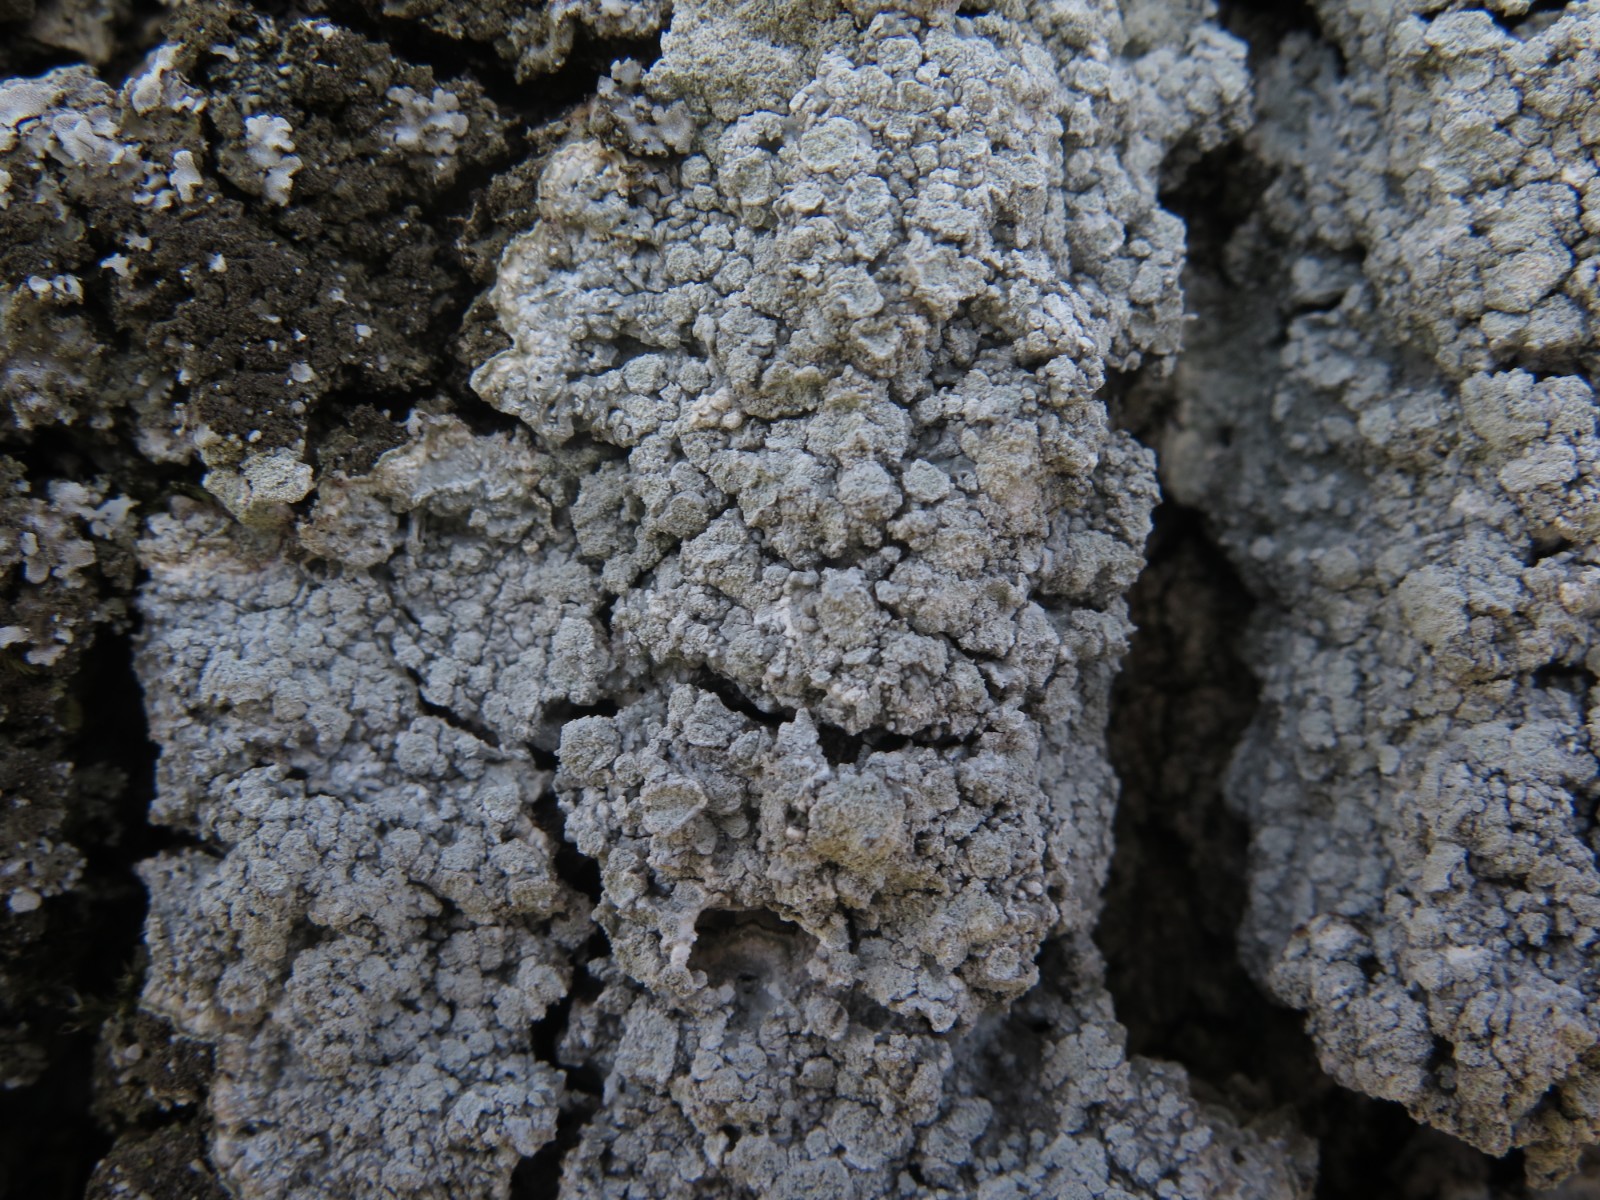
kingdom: Fungi
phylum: Ascomycota
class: Lecanoromycetes
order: Pertusariales
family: Pertusariaceae
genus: Lepra
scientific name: Lepra amara
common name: bitter prikvortelav
